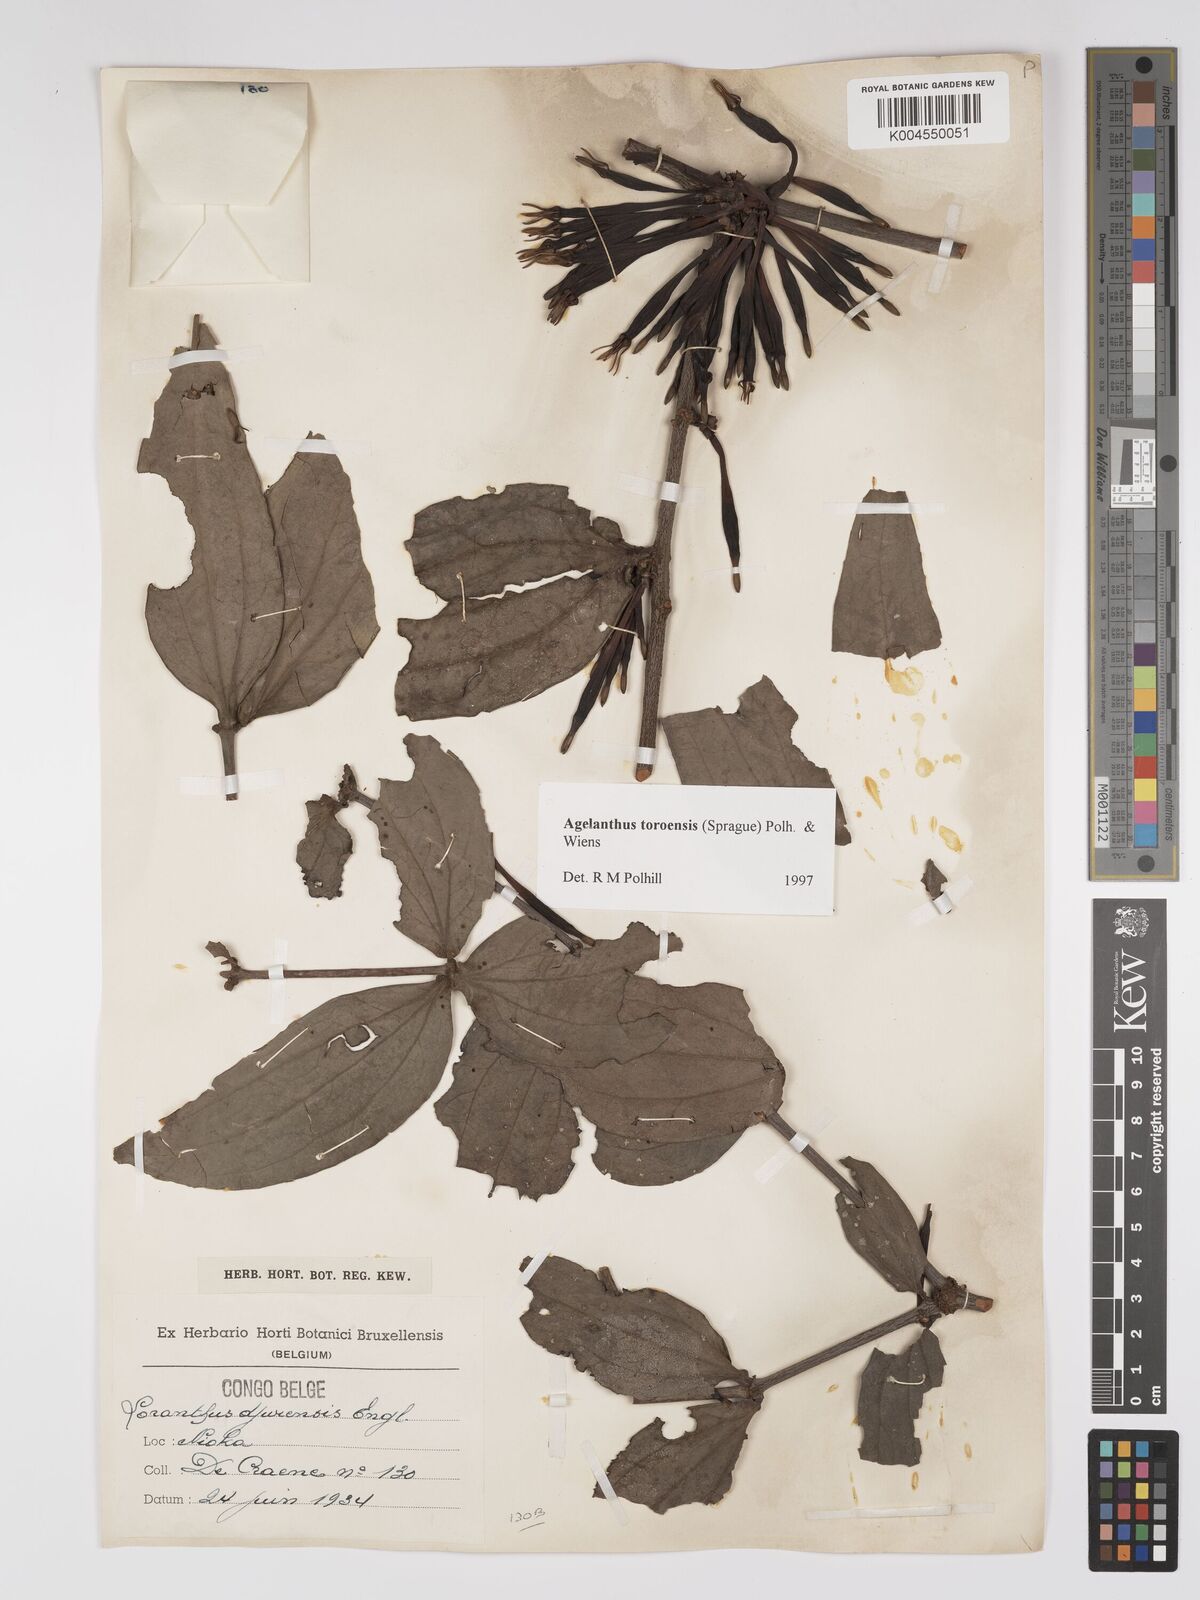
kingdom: Plantae
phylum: Tracheophyta
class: Magnoliopsida
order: Santalales
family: Loranthaceae
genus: Agelanthus
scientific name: Agelanthus toroensis
